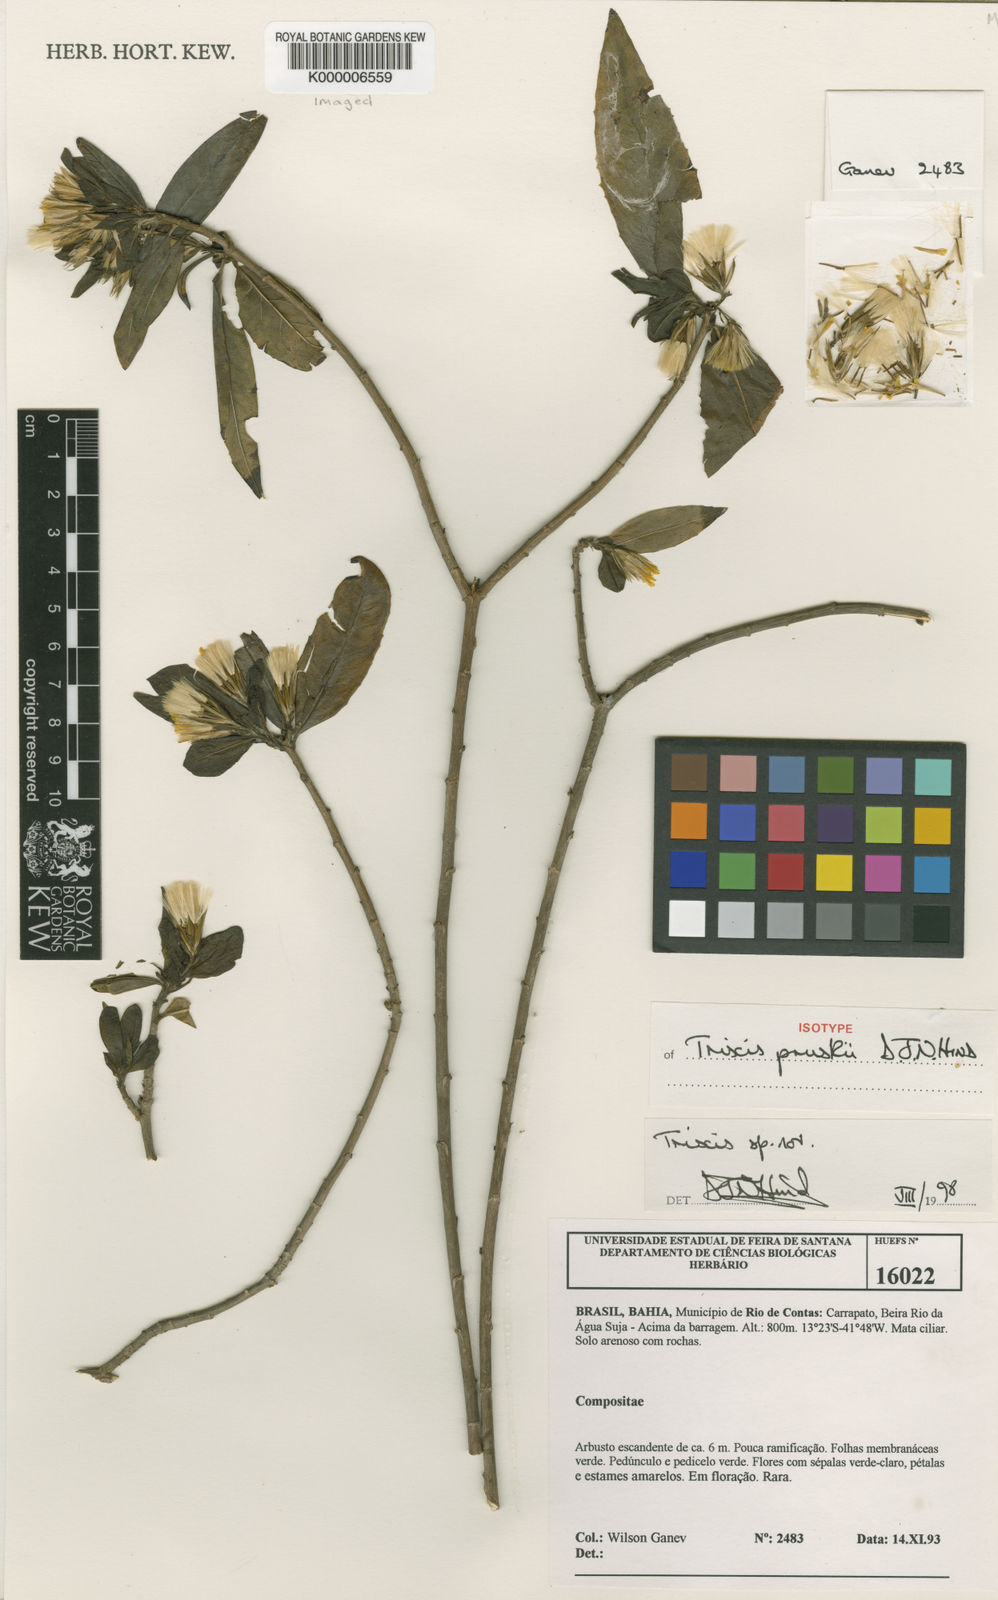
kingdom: Plantae
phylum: Tracheophyta
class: Magnoliopsida
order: Asterales
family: Asteraceae
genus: Trixis
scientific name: Trixis pruskii
